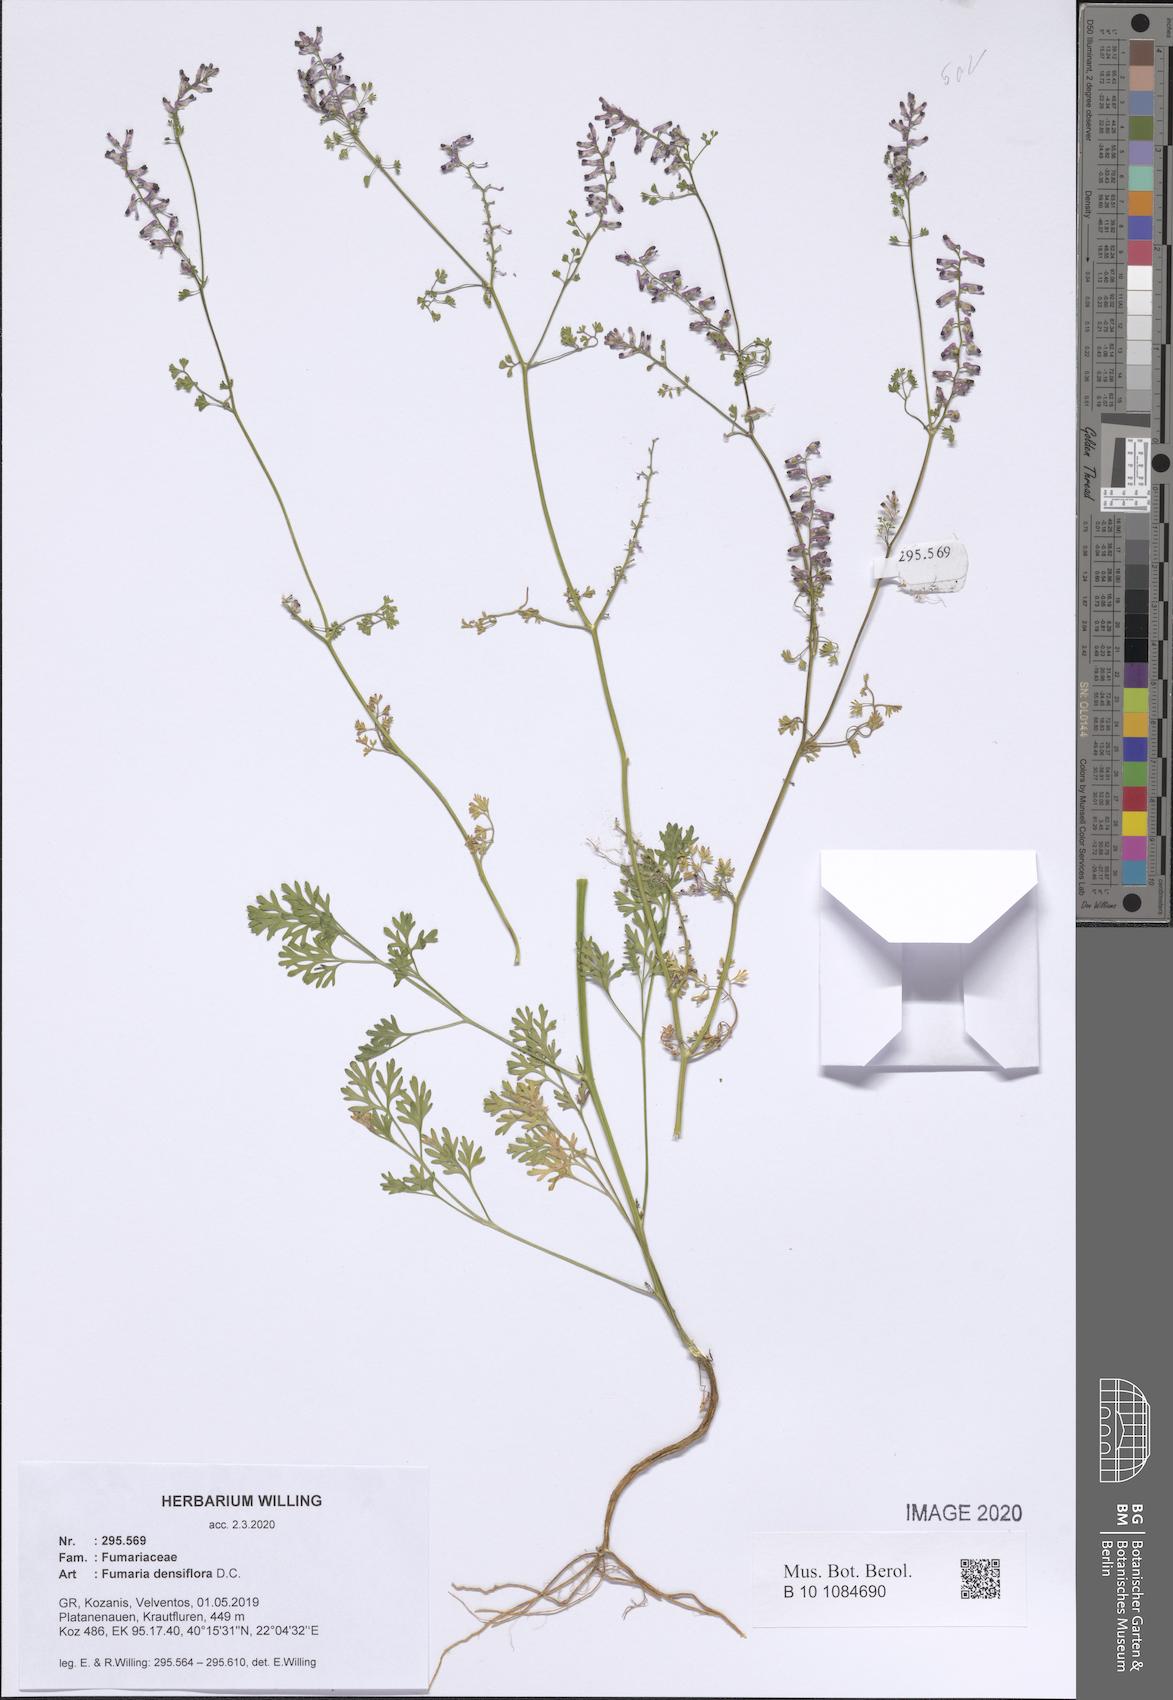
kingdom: Plantae
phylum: Tracheophyta
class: Magnoliopsida
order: Ranunculales
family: Papaveraceae
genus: Fumaria
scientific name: Fumaria densiflora
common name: Dense-flowered fumitory
